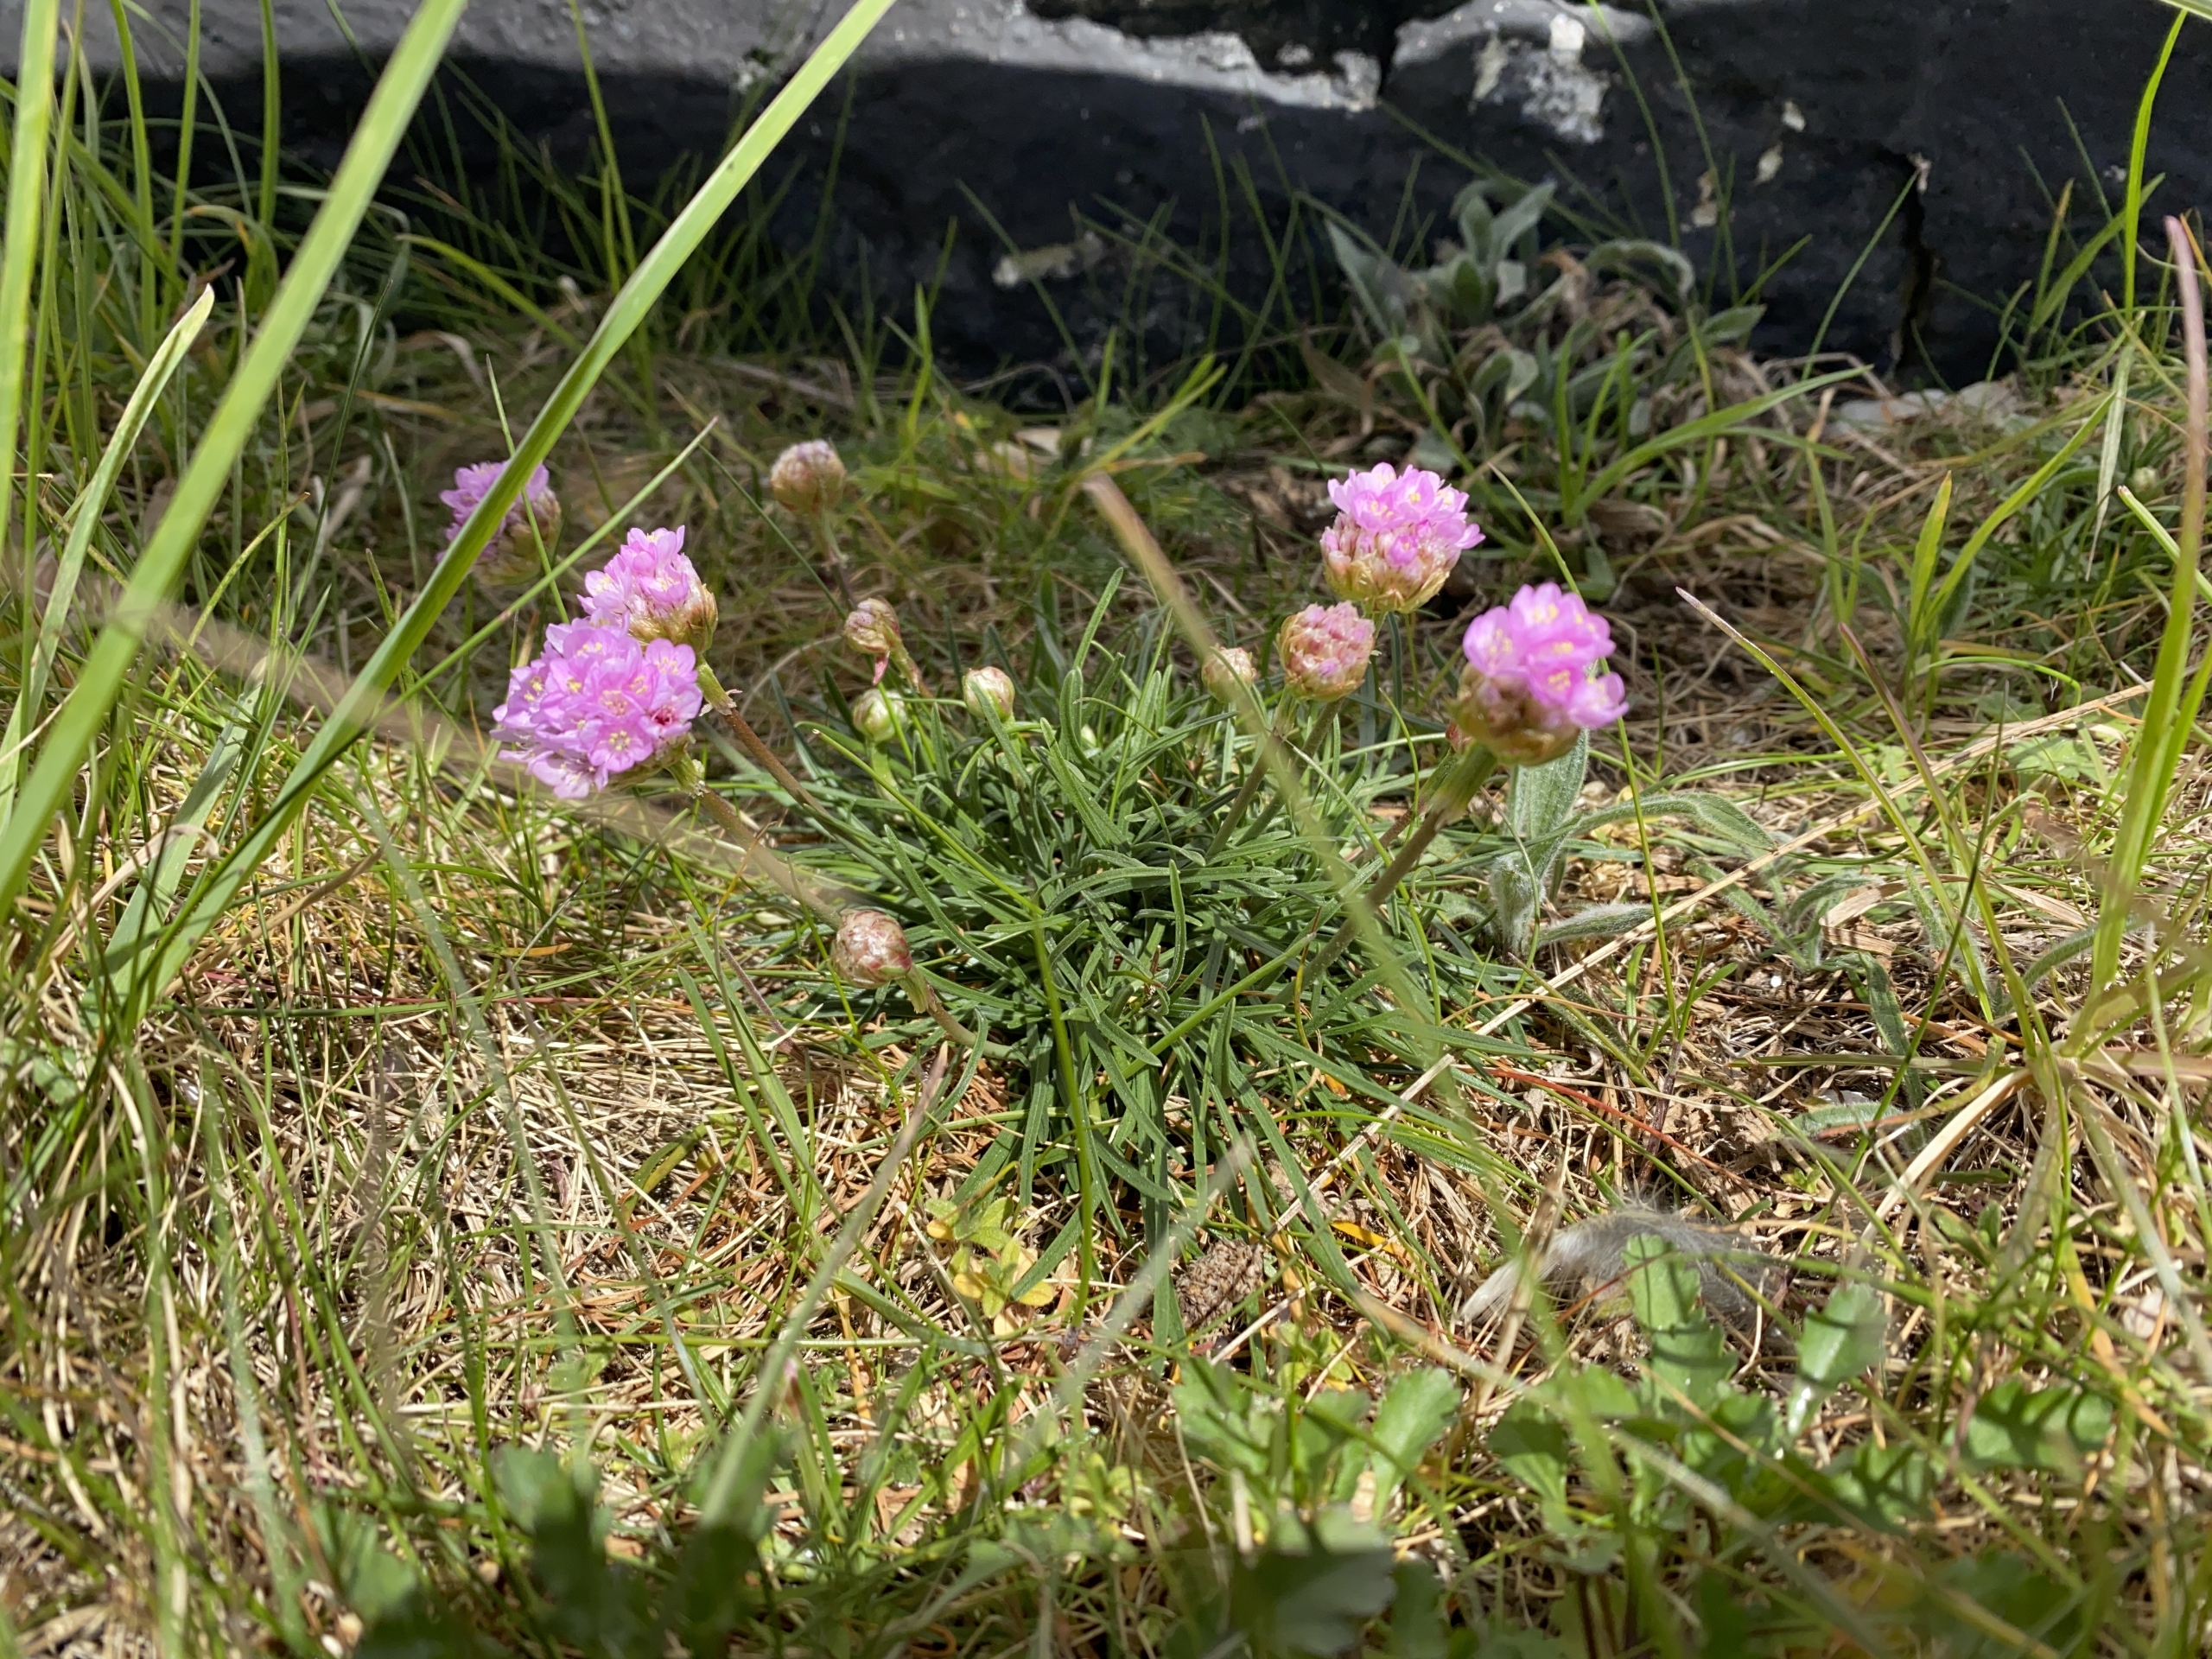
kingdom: Plantae
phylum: Tracheophyta
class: Magnoliopsida
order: Caryophyllales
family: Plumbaginaceae
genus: Armeria
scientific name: Armeria maritima
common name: Engelskgræs
